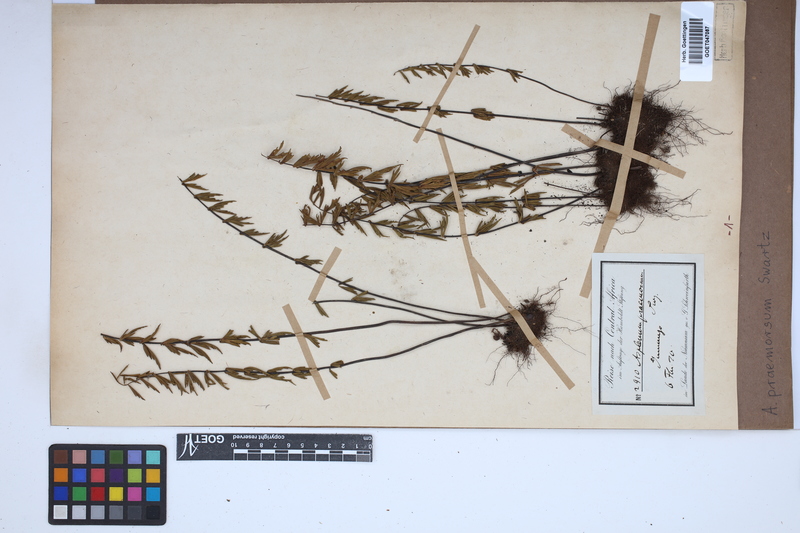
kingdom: Plantae
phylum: Tracheophyta
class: Polypodiopsida
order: Polypodiales
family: Aspleniaceae
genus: Asplenium
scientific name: Asplenium praemorsum
